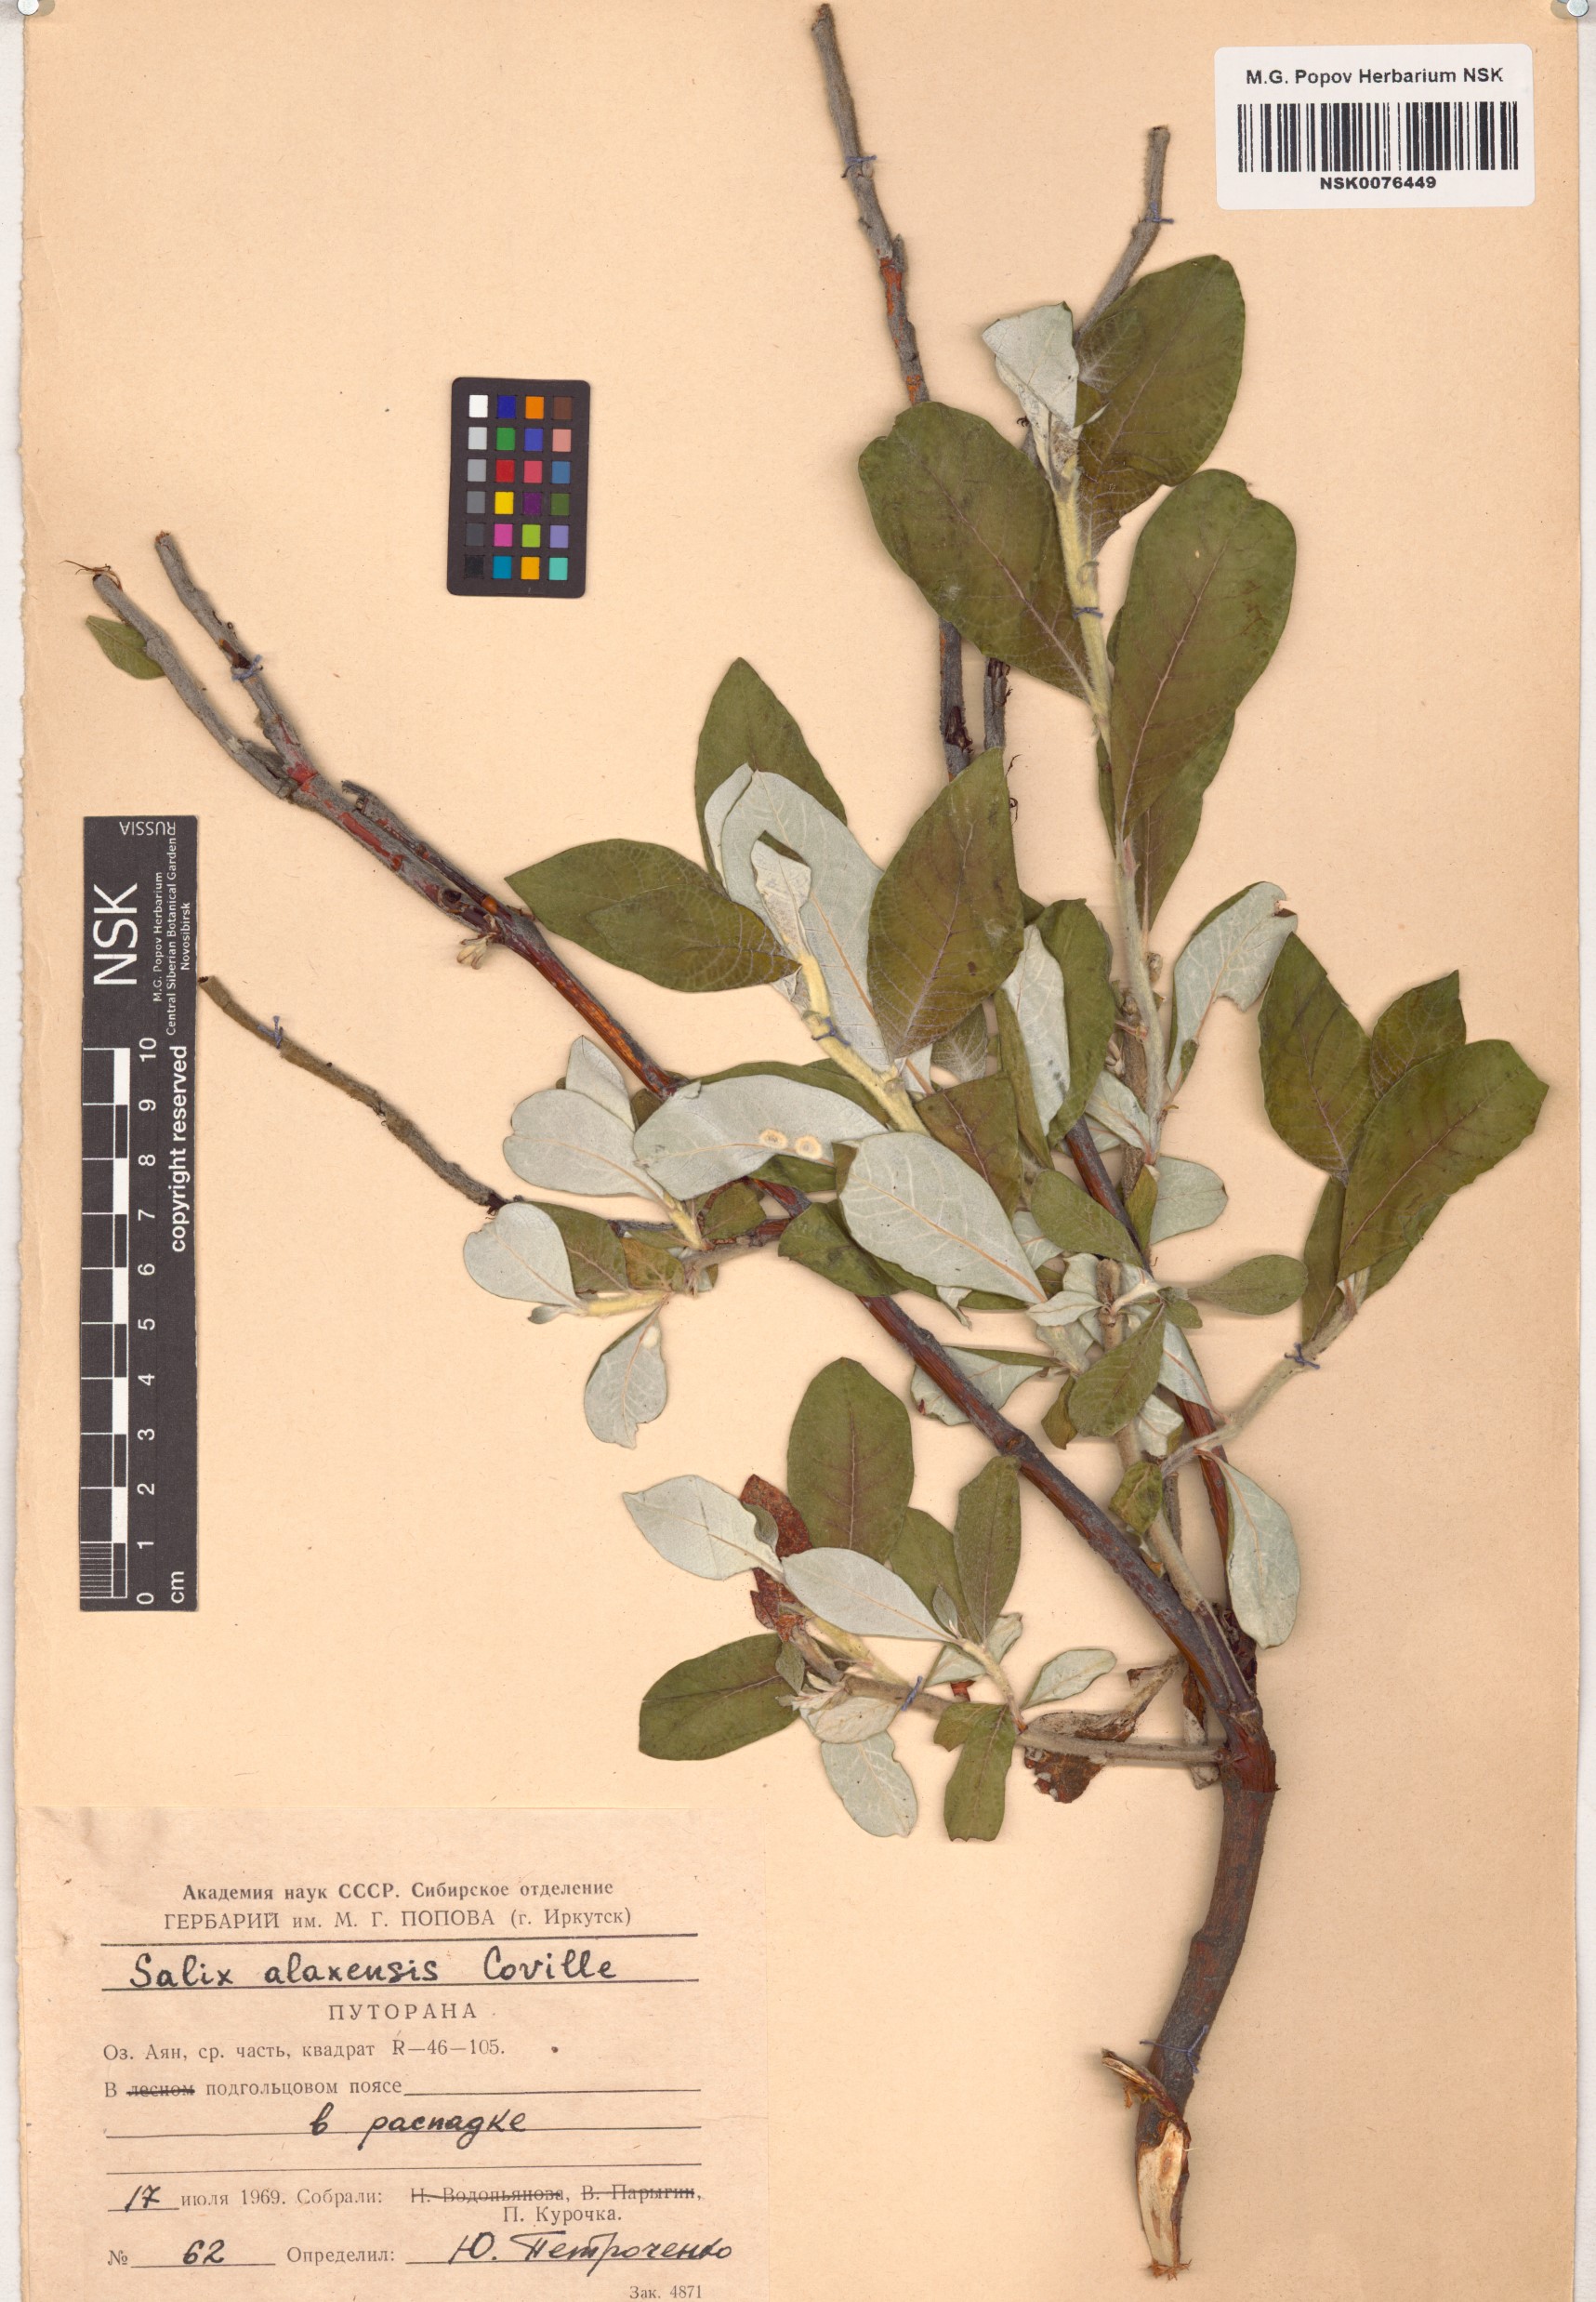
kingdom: Plantae
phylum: Tracheophyta
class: Magnoliopsida
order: Malpighiales
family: Salicaceae
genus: Salix
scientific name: Salix alaxensis
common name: Feltleaf willow
